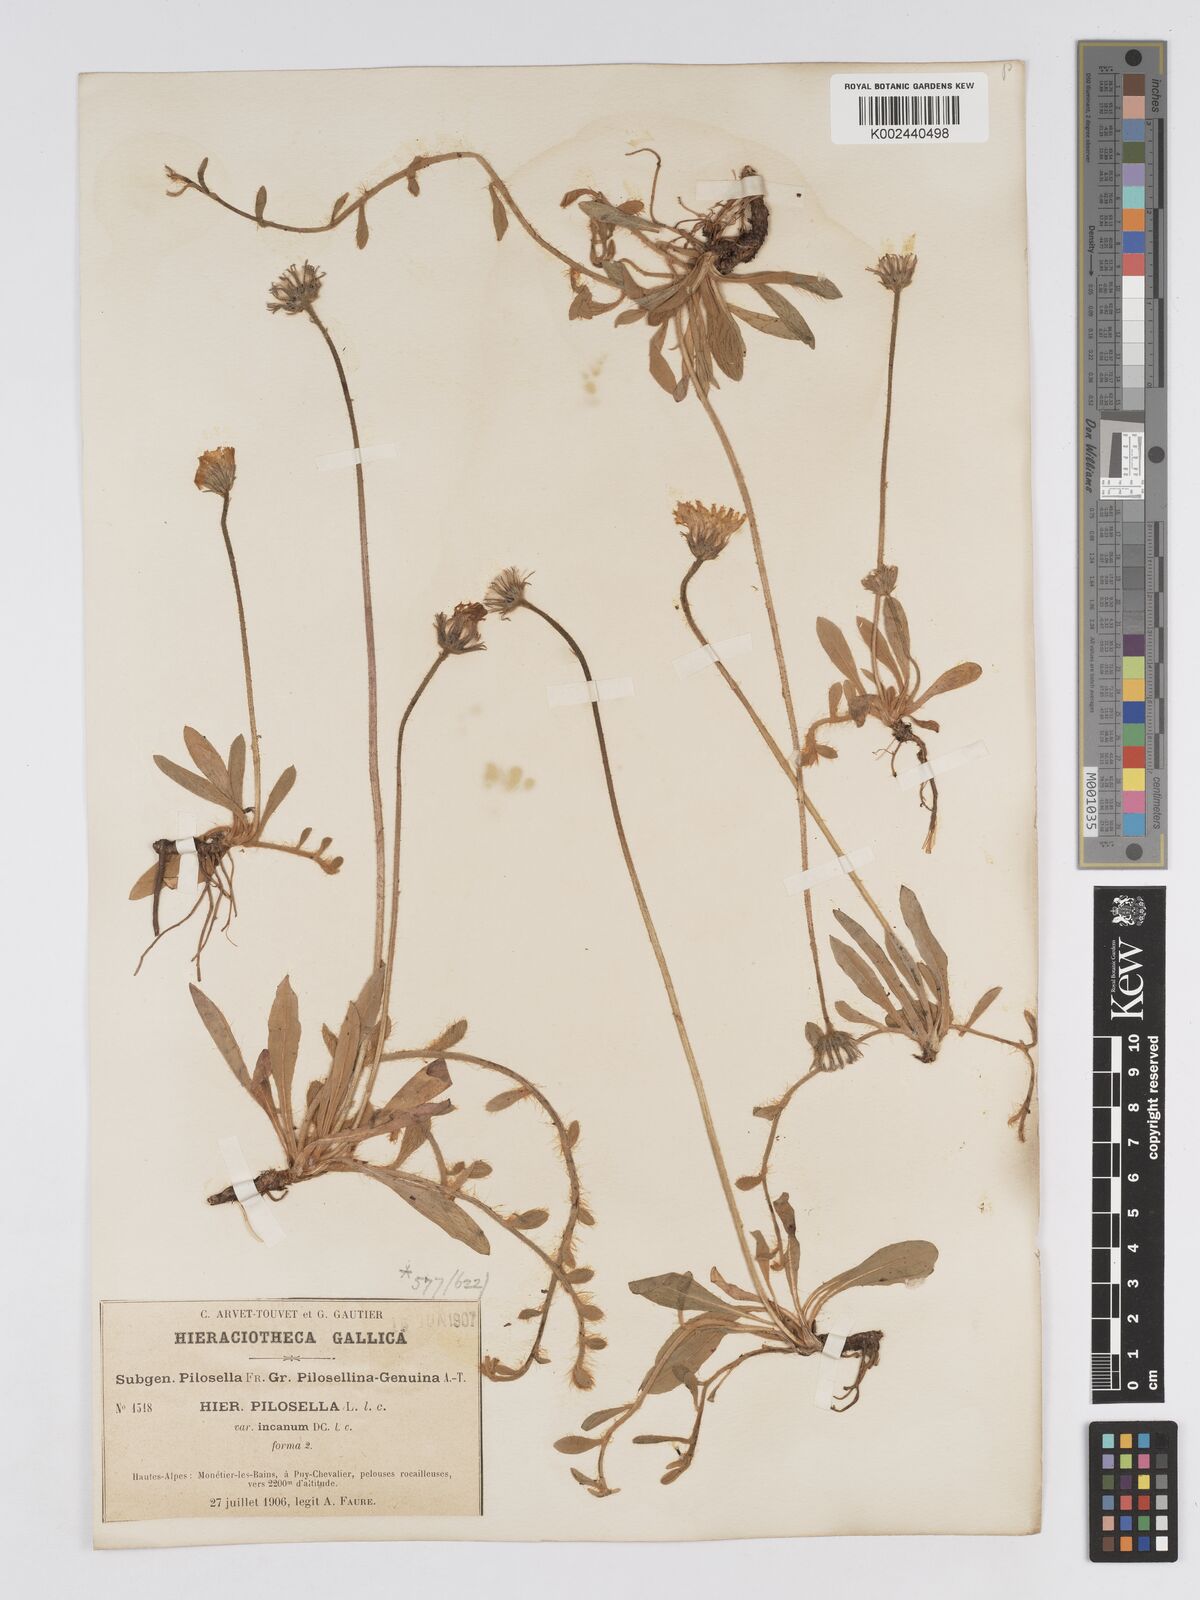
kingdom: Plantae
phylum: Tracheophyta
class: Magnoliopsida
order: Asterales
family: Asteraceae
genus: Pilosella
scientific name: Pilosella velutina
